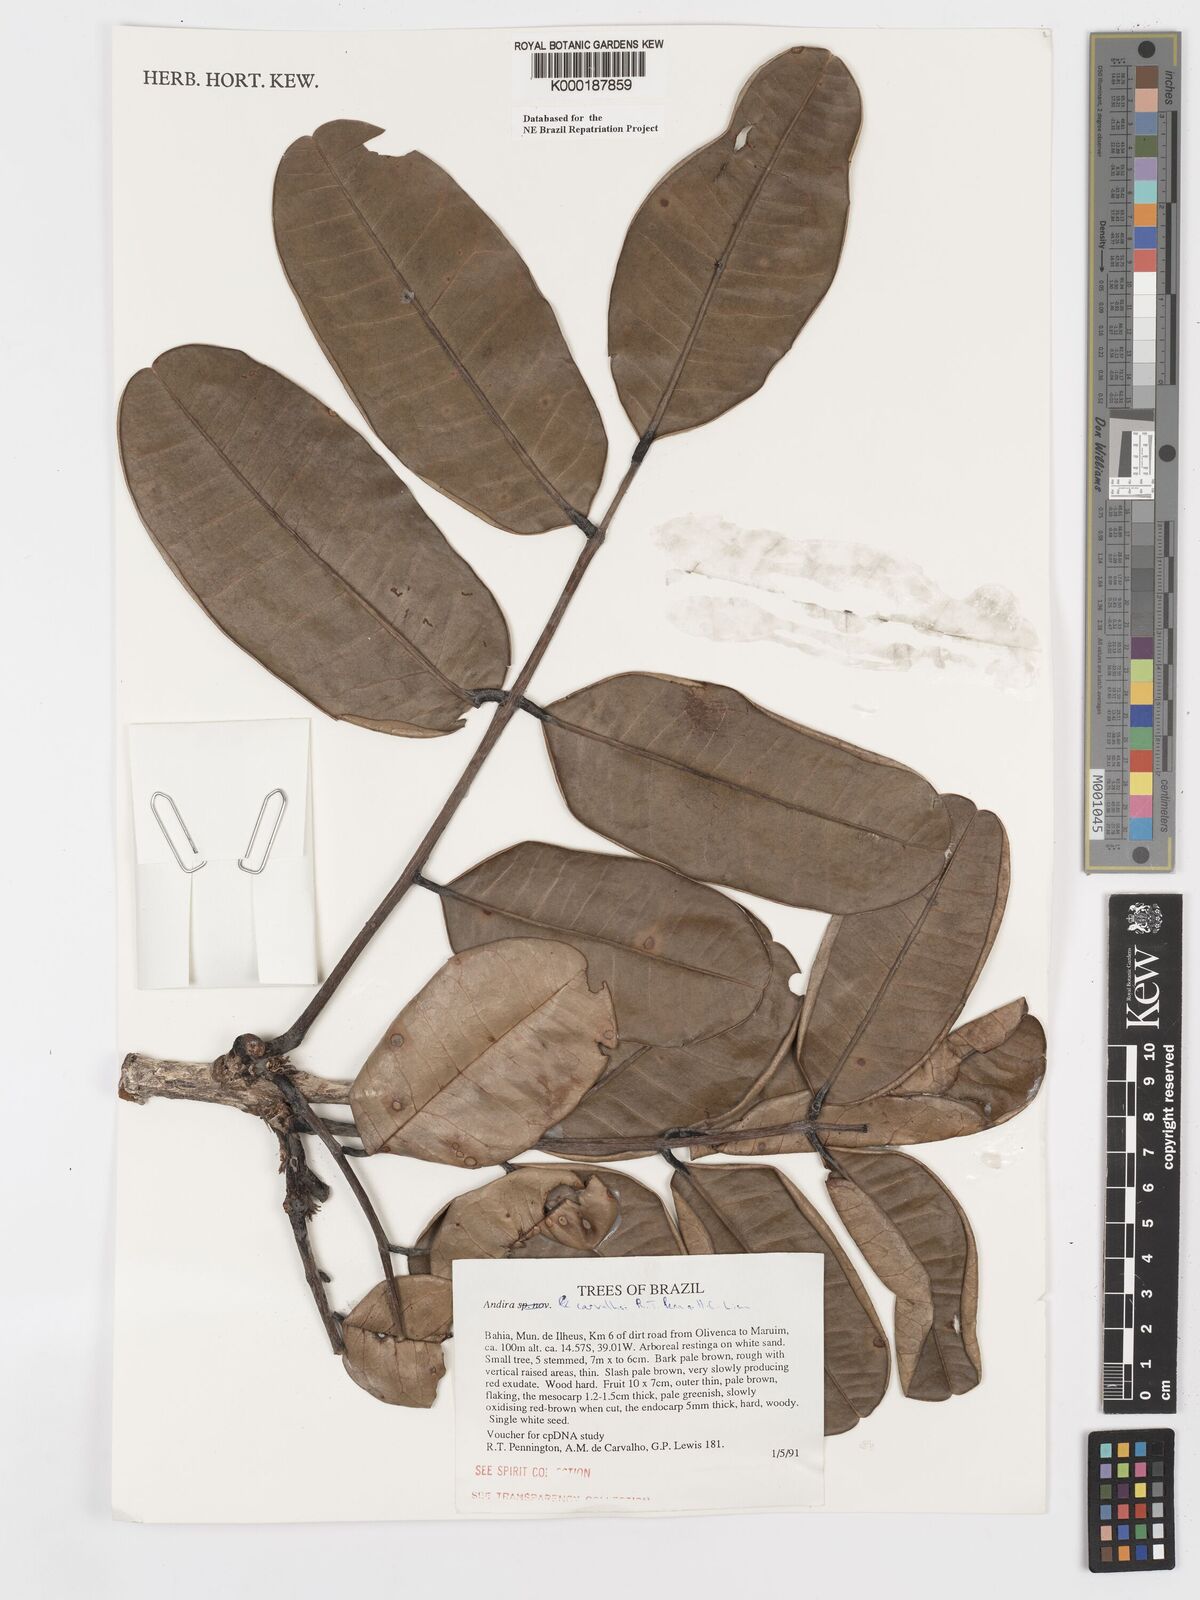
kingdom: Plantae
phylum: Tracheophyta
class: Magnoliopsida
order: Fabales
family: Fabaceae
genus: Andira
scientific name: Andira carvalhoi
